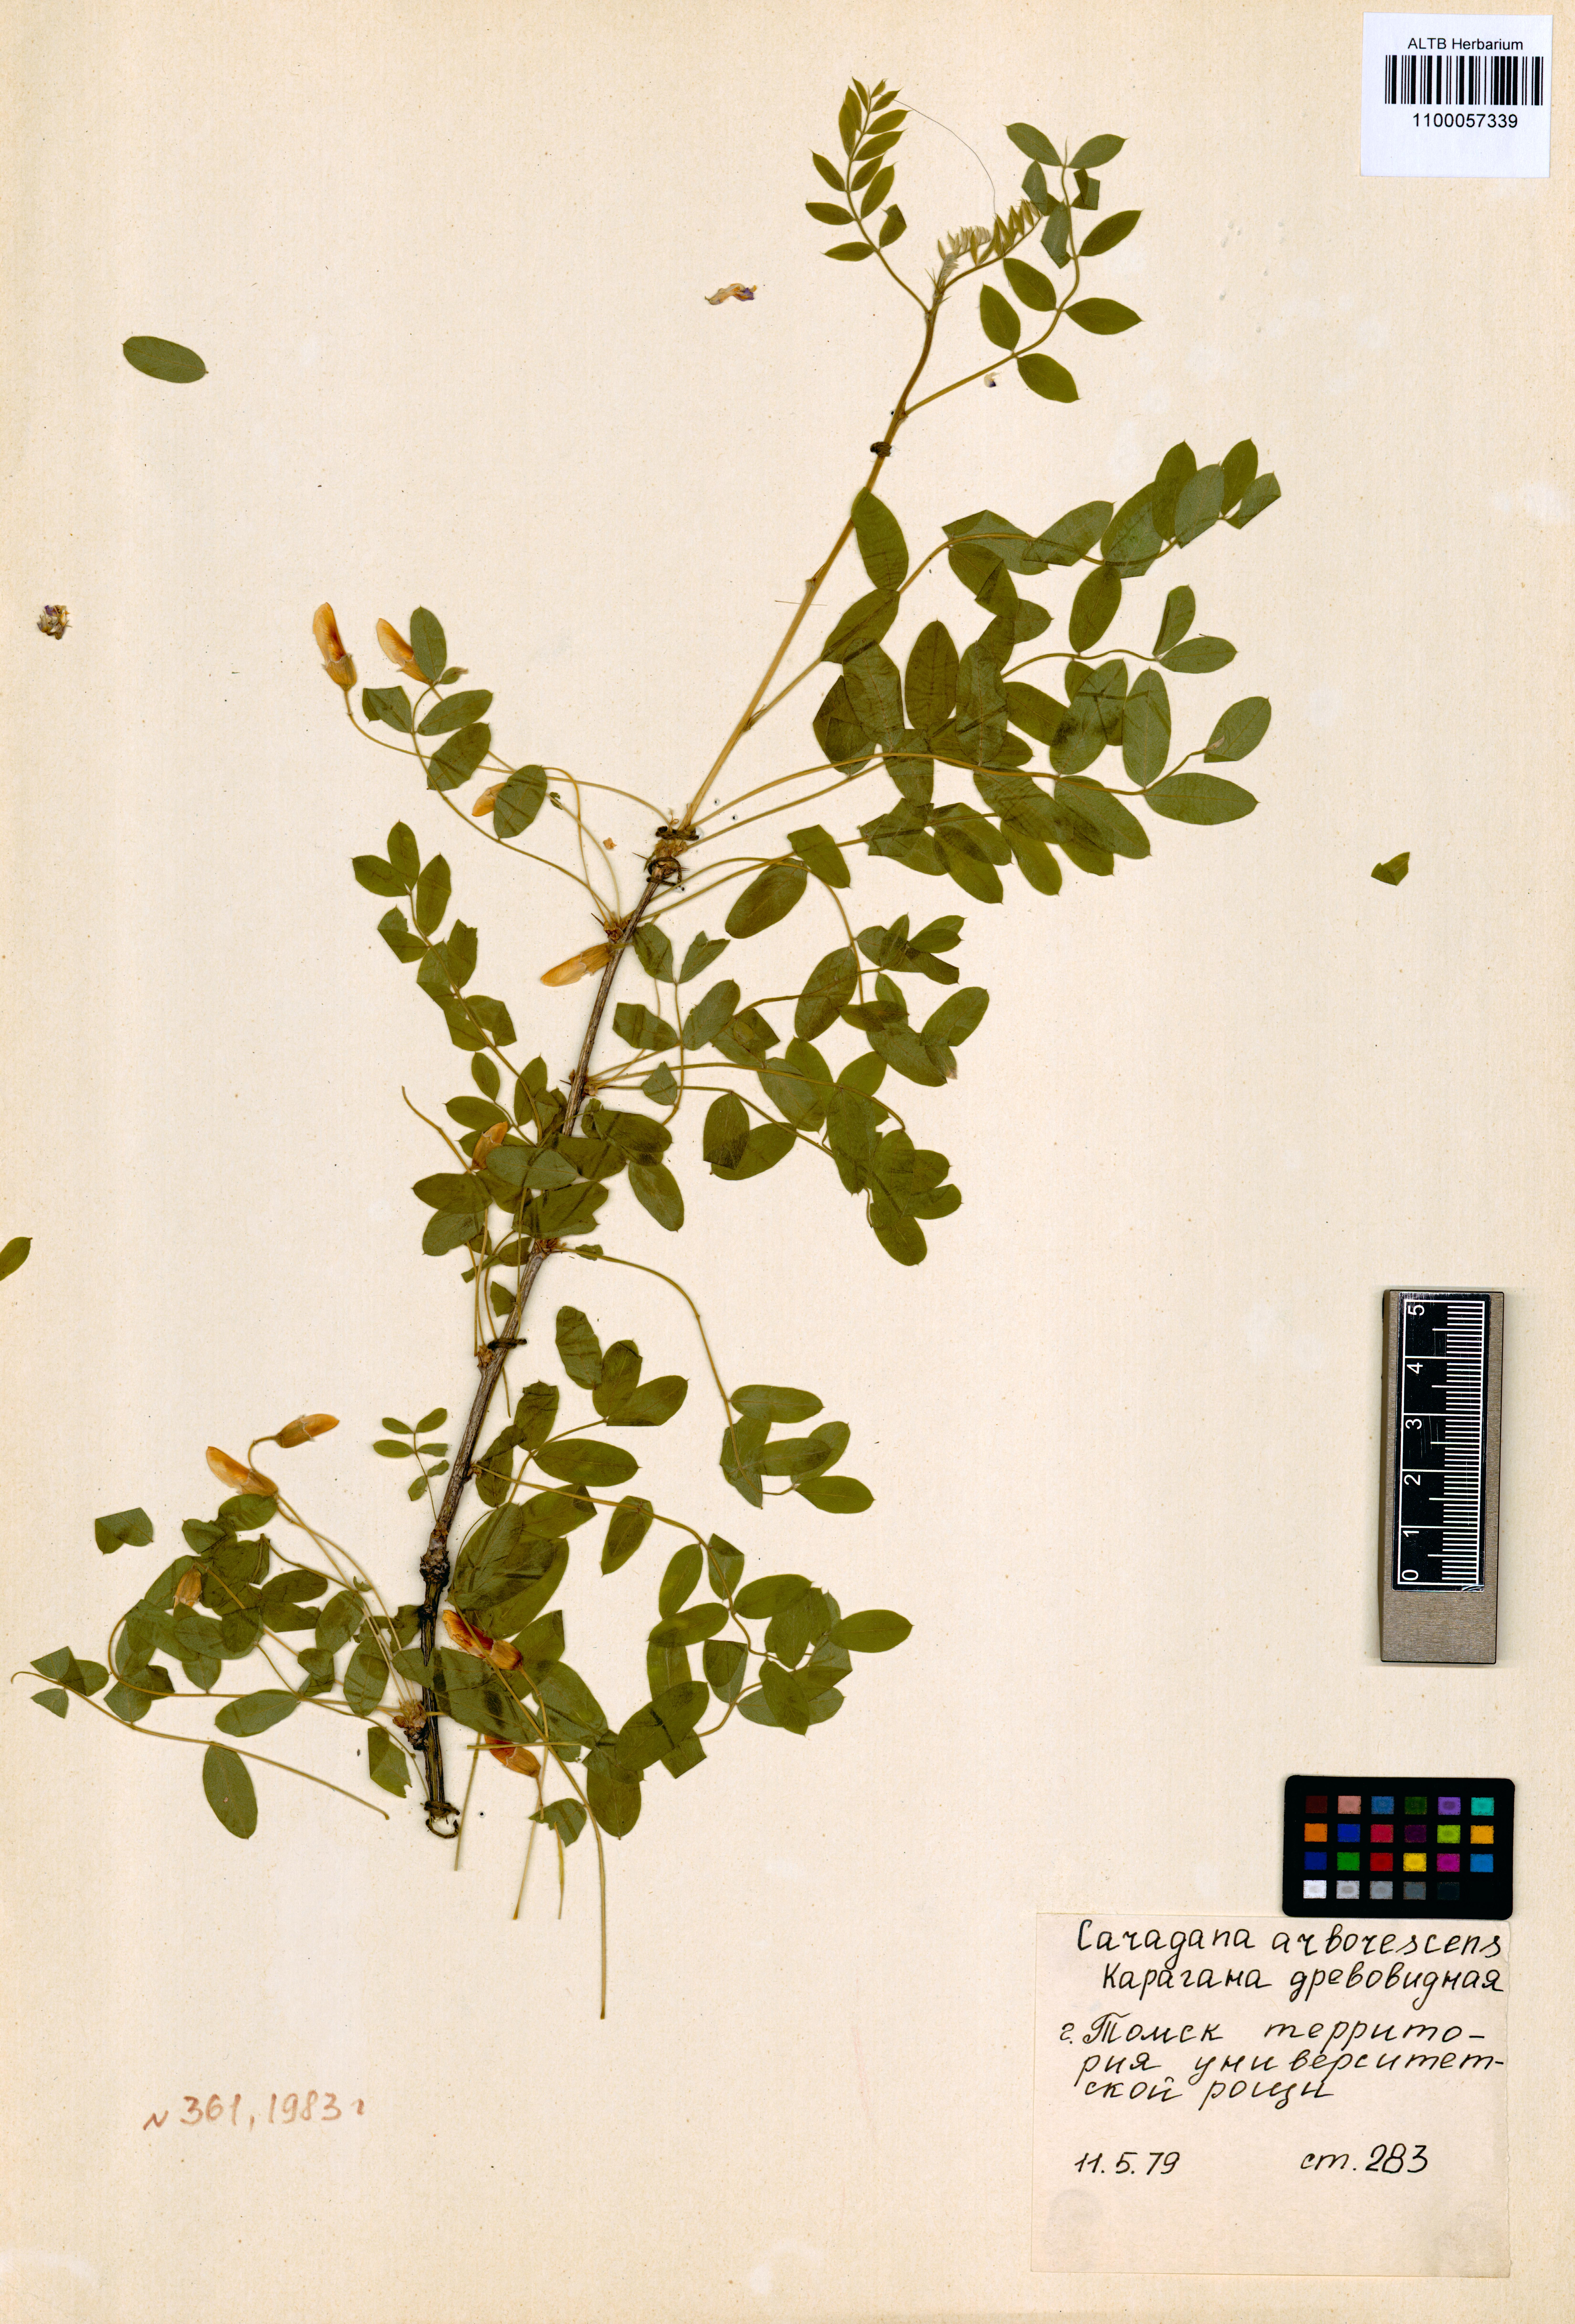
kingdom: Plantae
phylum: Tracheophyta
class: Magnoliopsida
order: Fabales
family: Fabaceae
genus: Caragana
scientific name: Caragana arborescens
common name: Siberian peashrub
